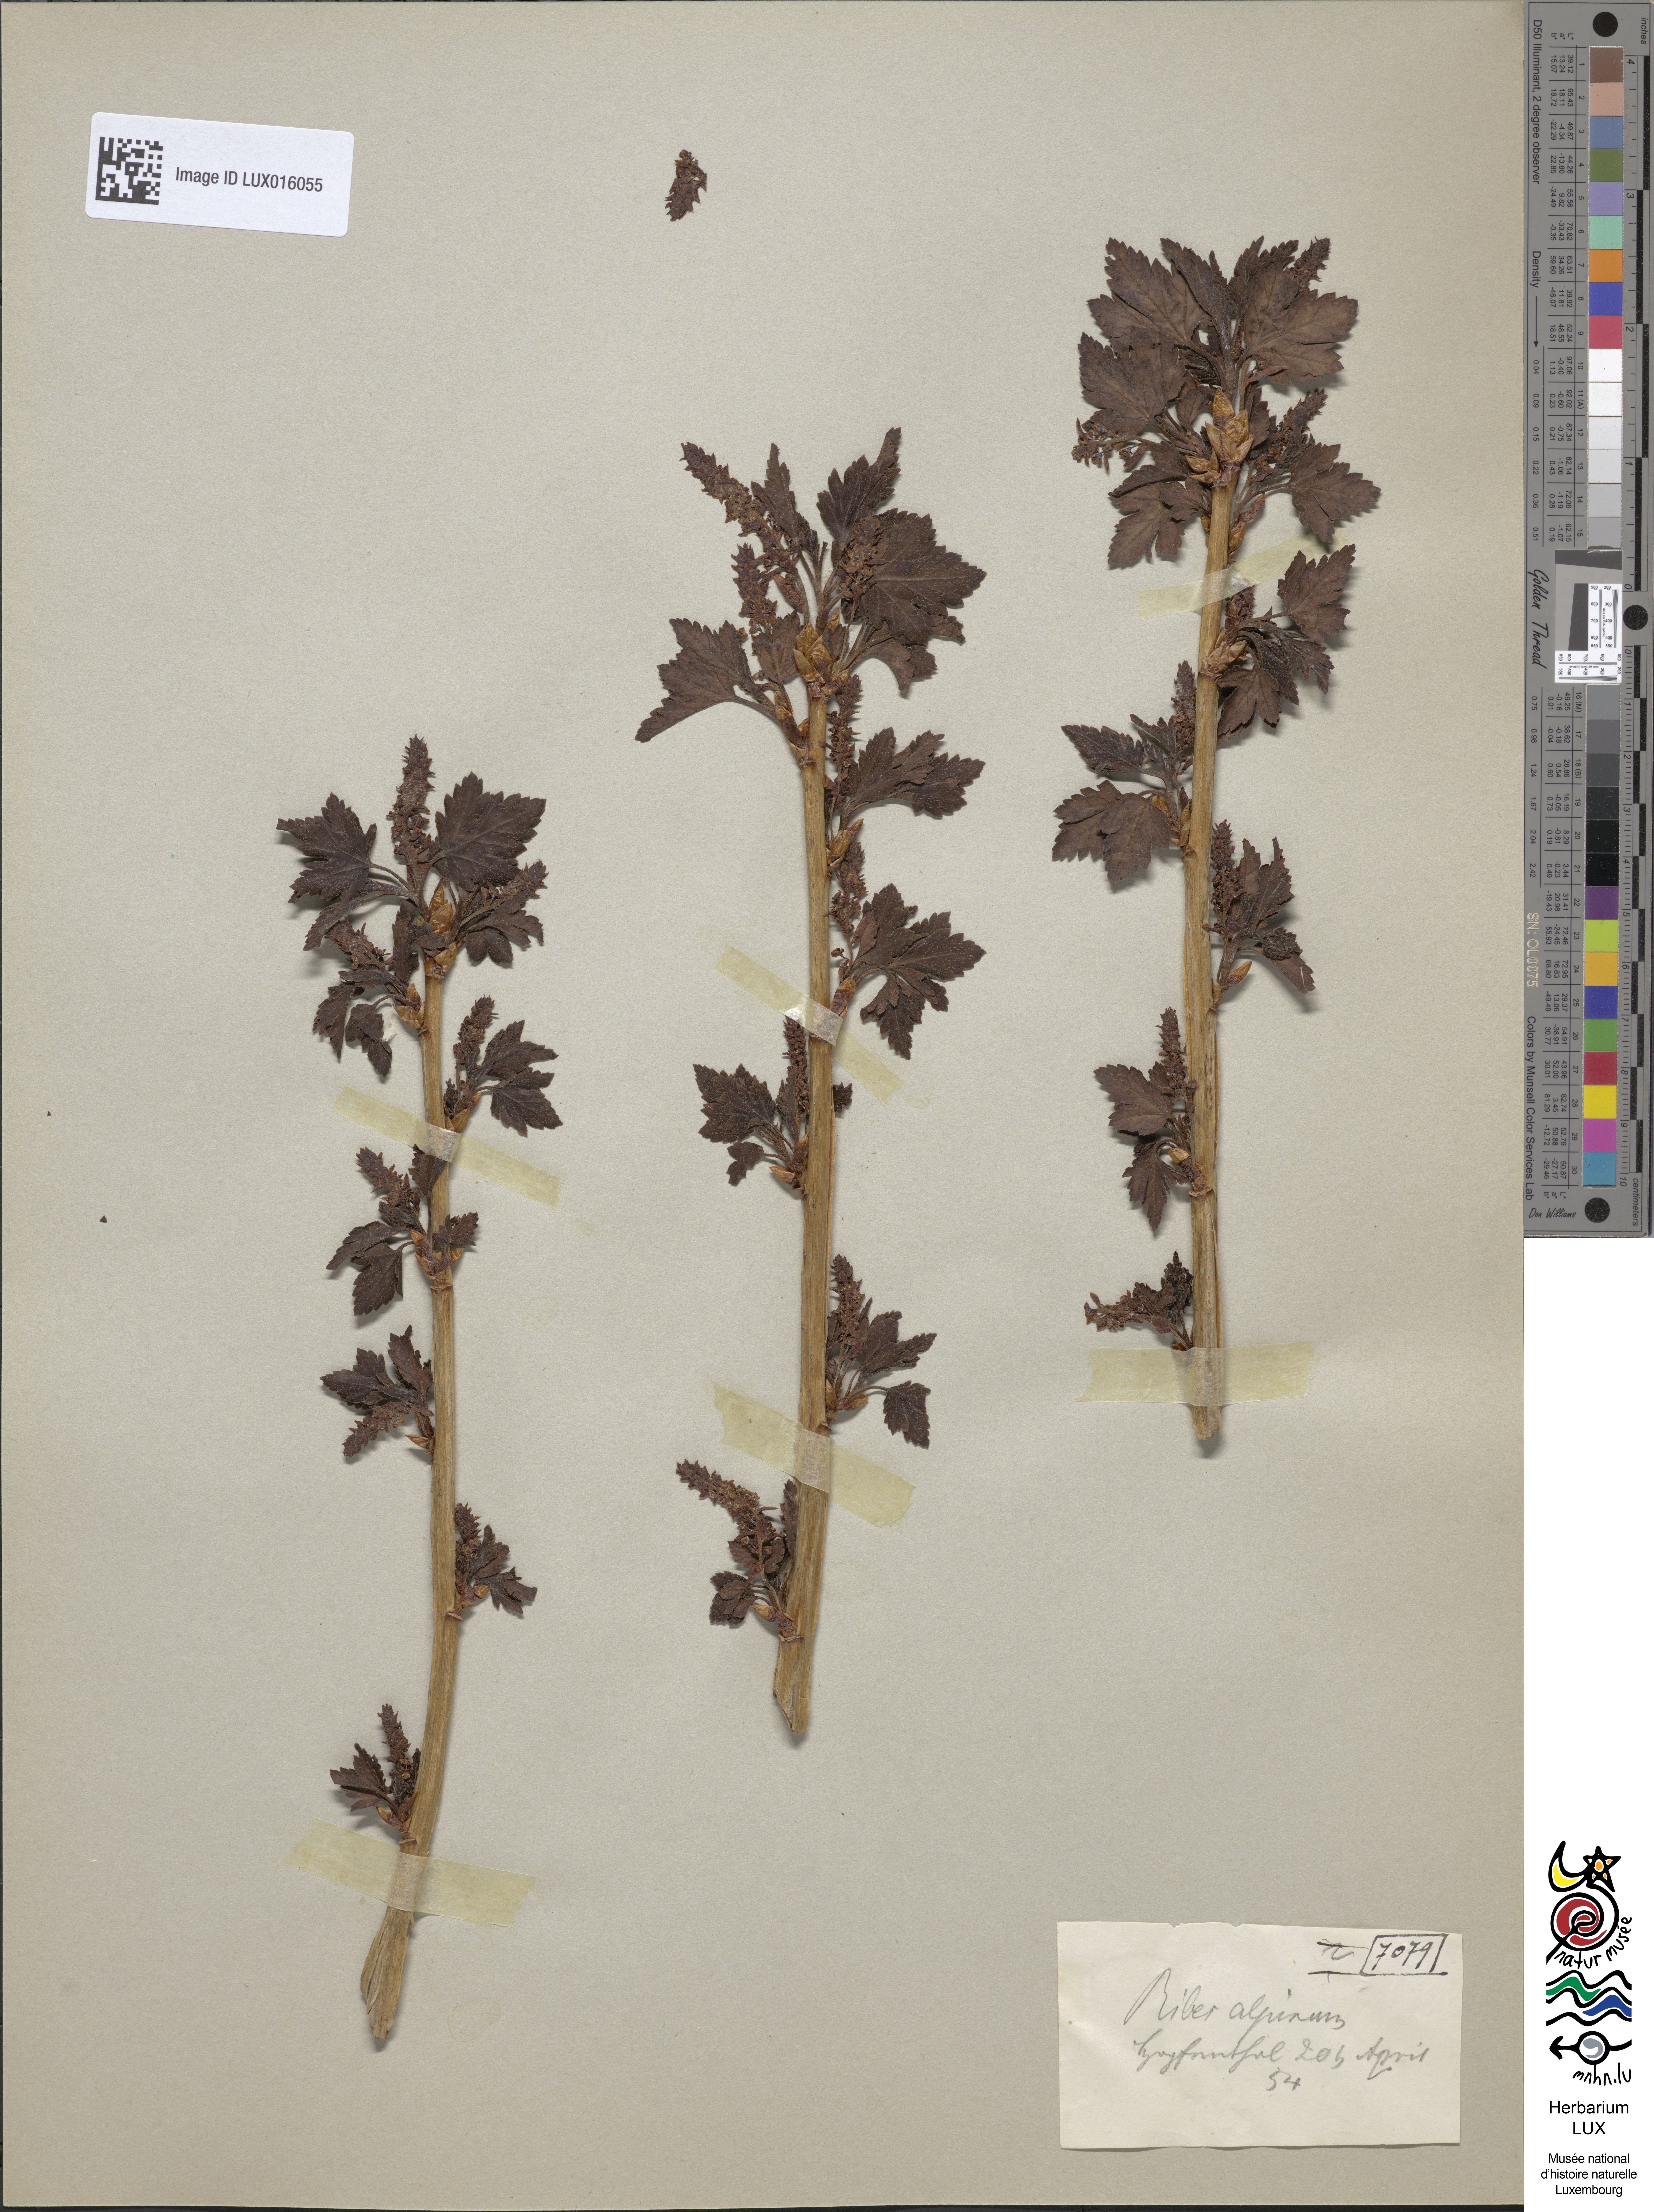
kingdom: Plantae
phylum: Tracheophyta
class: Magnoliopsida
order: Saxifragales
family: Grossulariaceae
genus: Ribes
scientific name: Ribes alpinum
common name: Alpine currant
